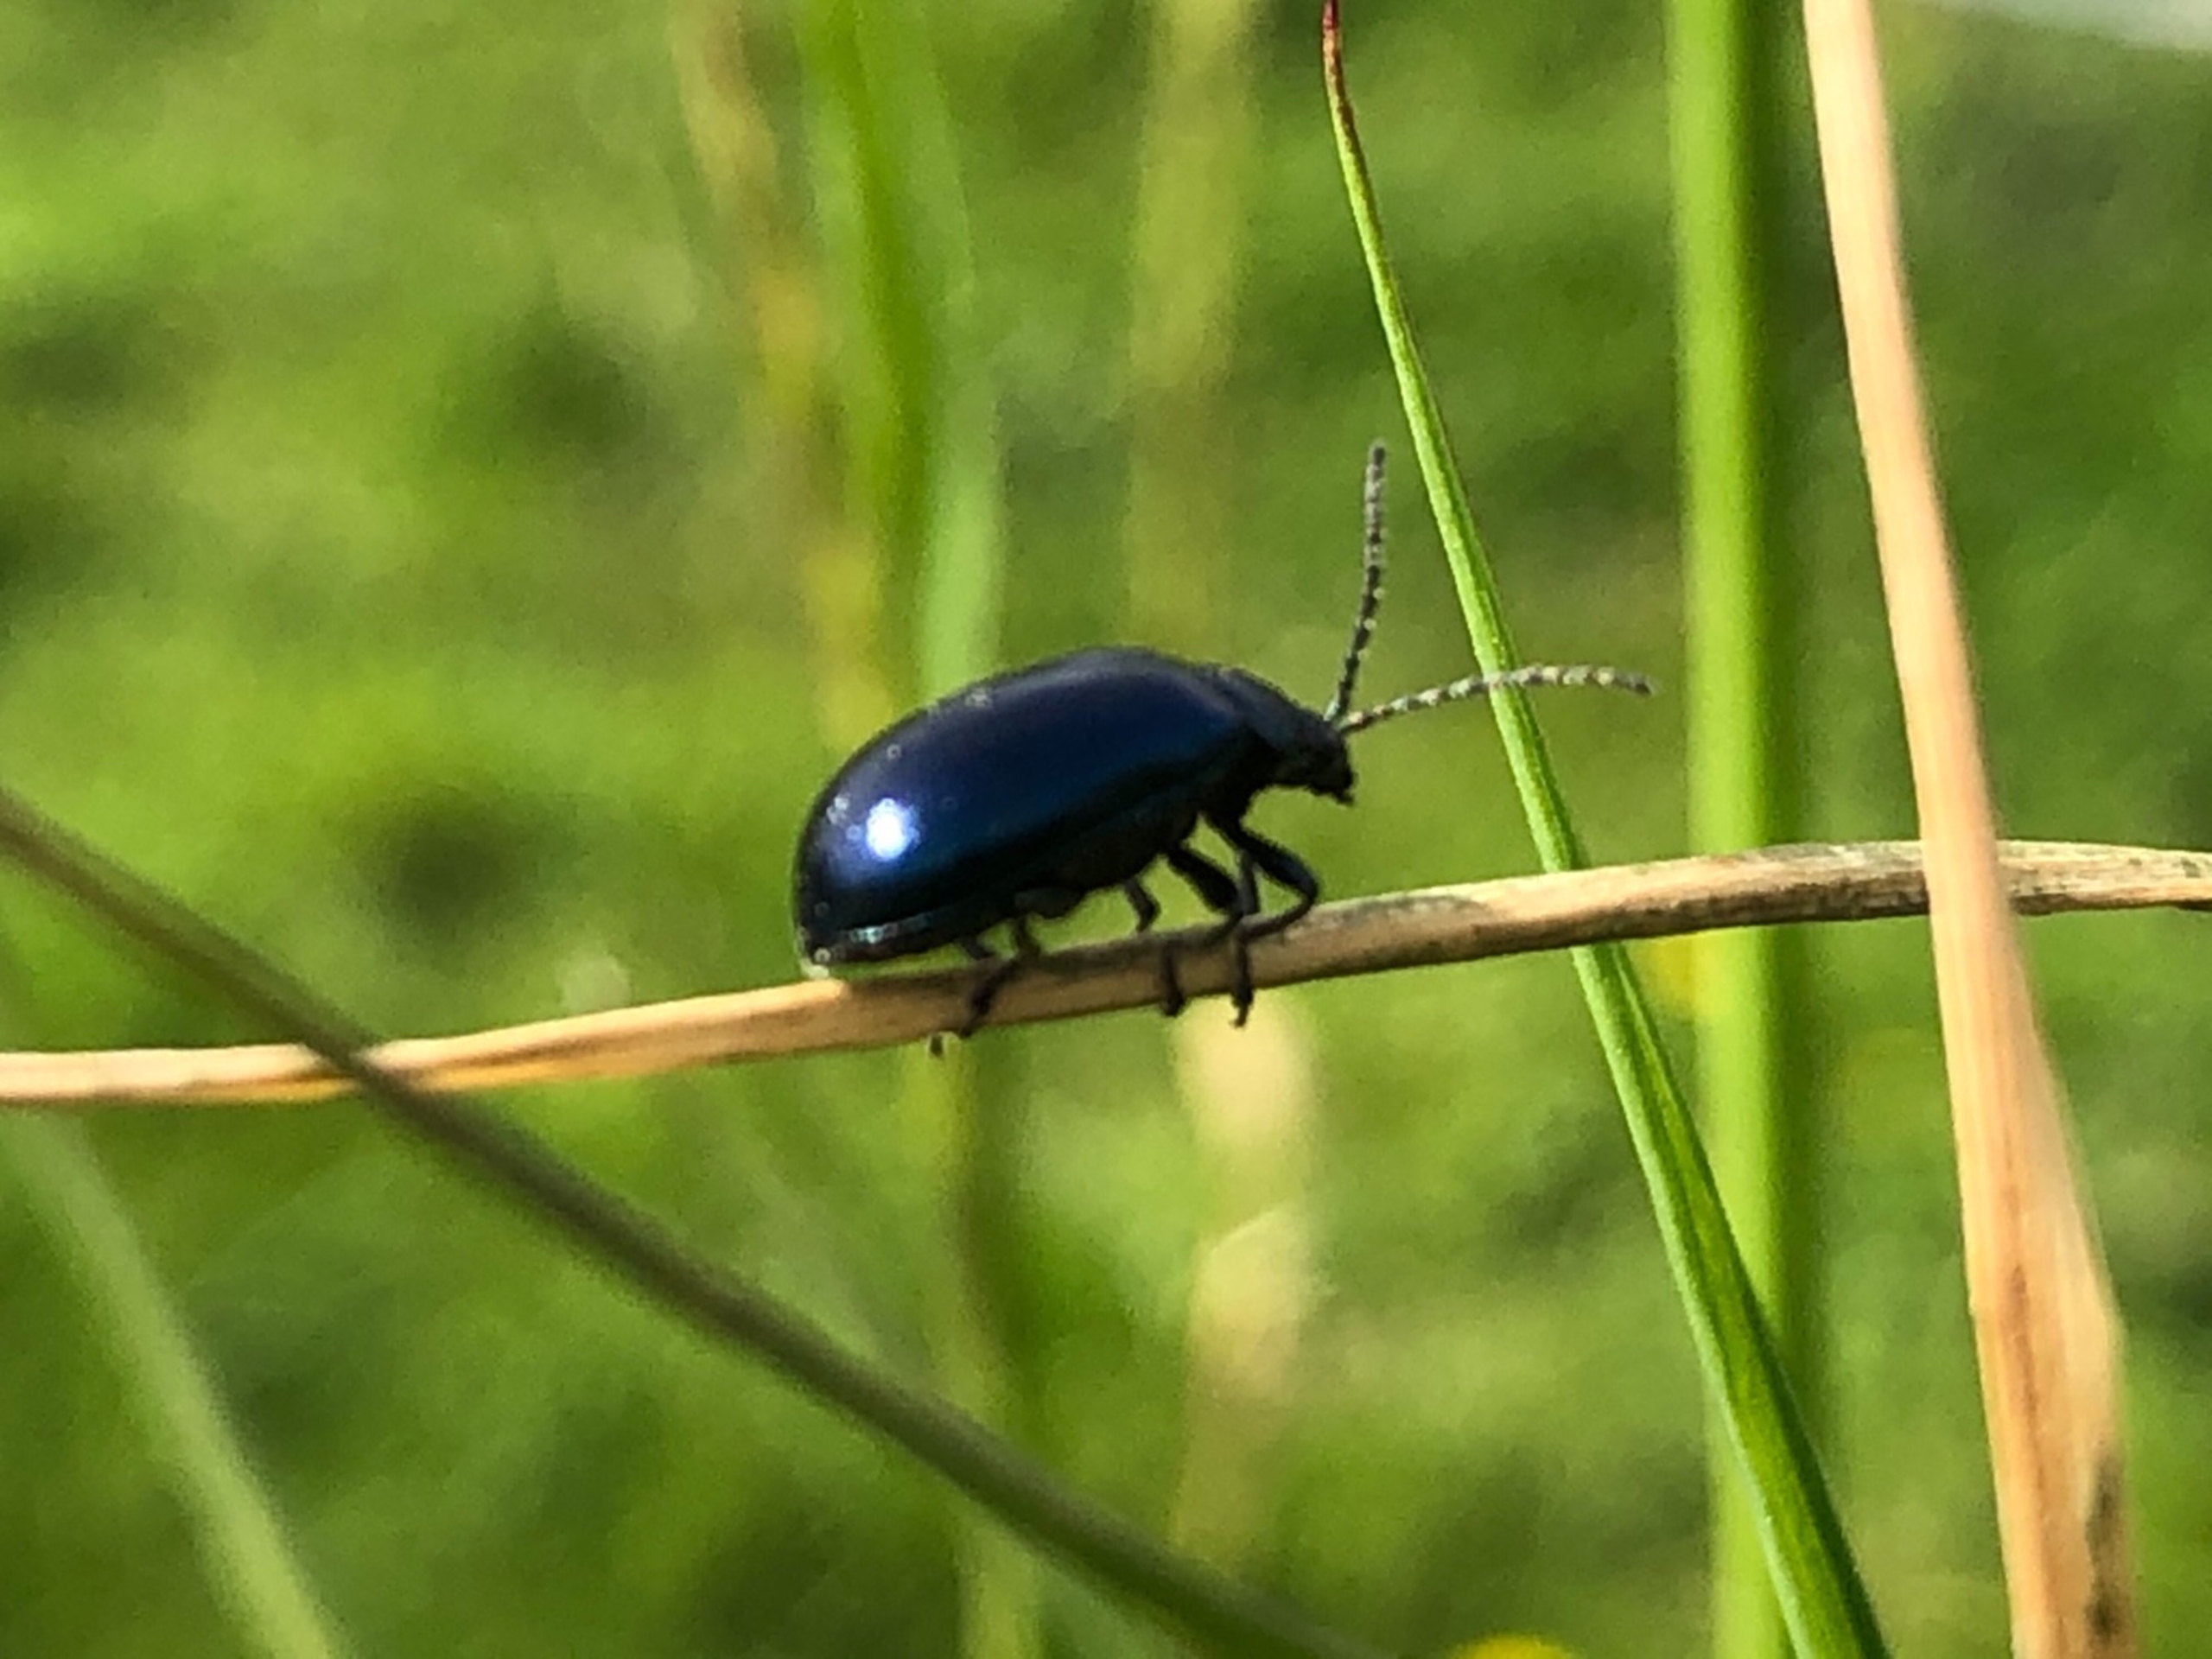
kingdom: Animalia
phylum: Arthropoda
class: Insecta
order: Coleoptera
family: Chrysomelidae
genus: Agelastica
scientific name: Agelastica alni
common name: Ellebladbille
